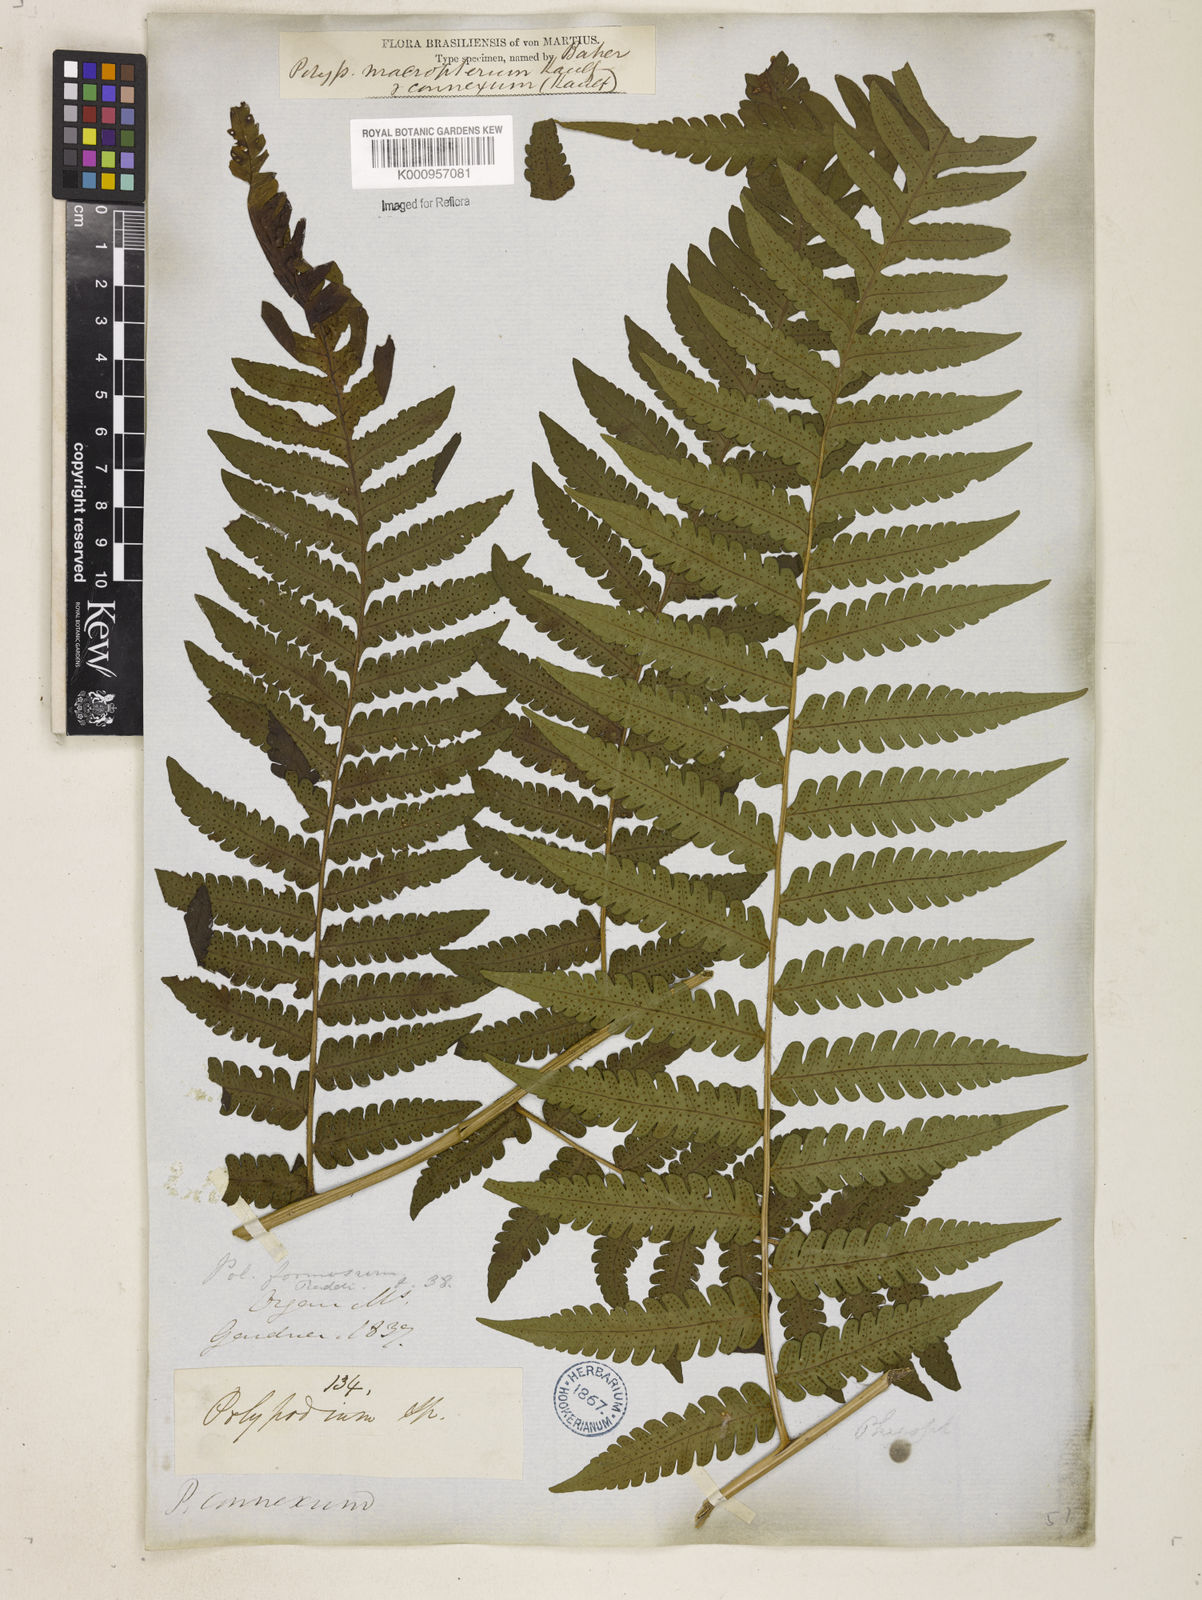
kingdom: Plantae
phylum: Tracheophyta
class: Polypodiopsida
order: Polypodiales
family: Dryopteridaceae
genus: Megalastrum
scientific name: Megalastrum connexum
